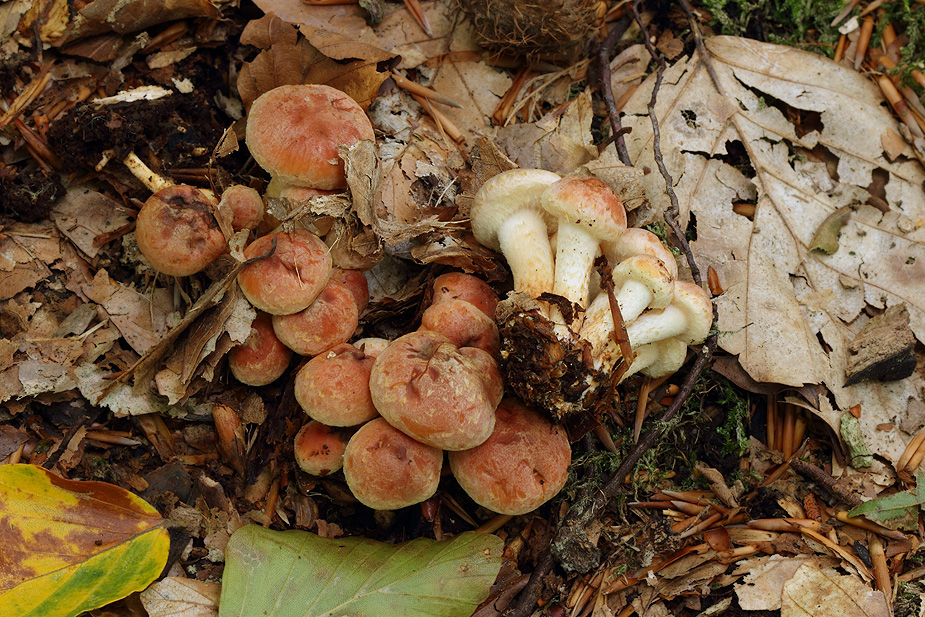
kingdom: Fungi
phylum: Basidiomycota
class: Agaricomycetes
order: Agaricales
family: Strophariaceae
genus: Hypholoma
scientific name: Hypholoma lateritium
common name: teglrød svovlhat
